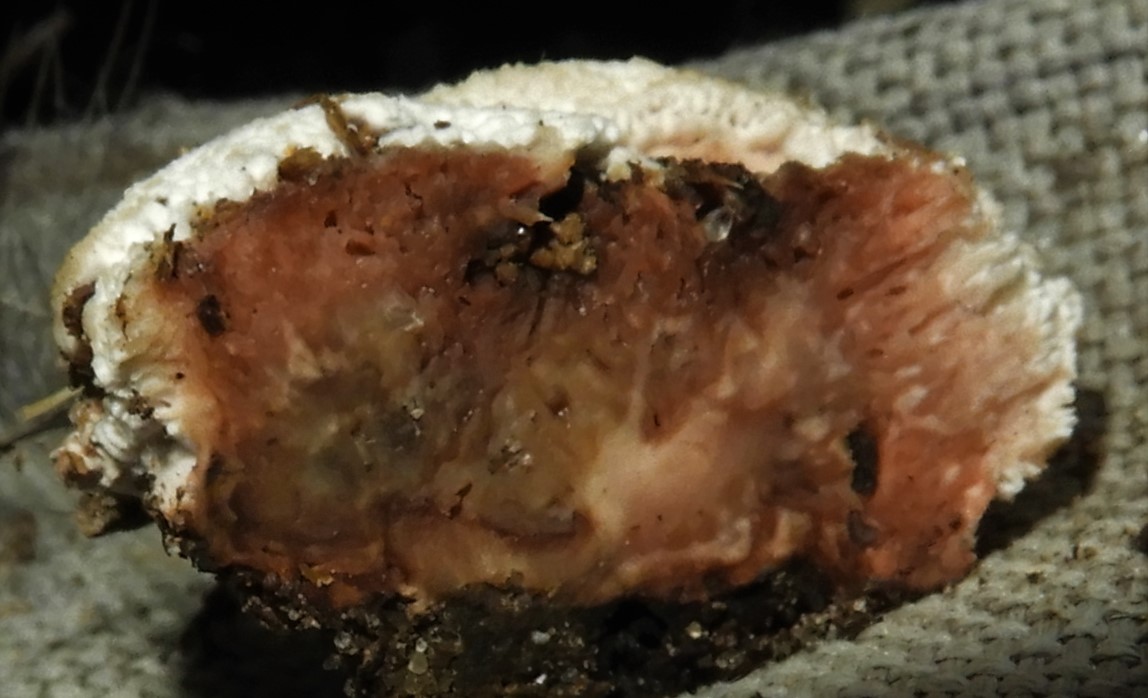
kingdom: Fungi
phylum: Basidiomycota
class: Agaricomycetes
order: Polyporales
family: Podoscyphaceae
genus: Abortiporus
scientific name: Abortiporus biennis
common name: rødmende pjalteporesvamp
